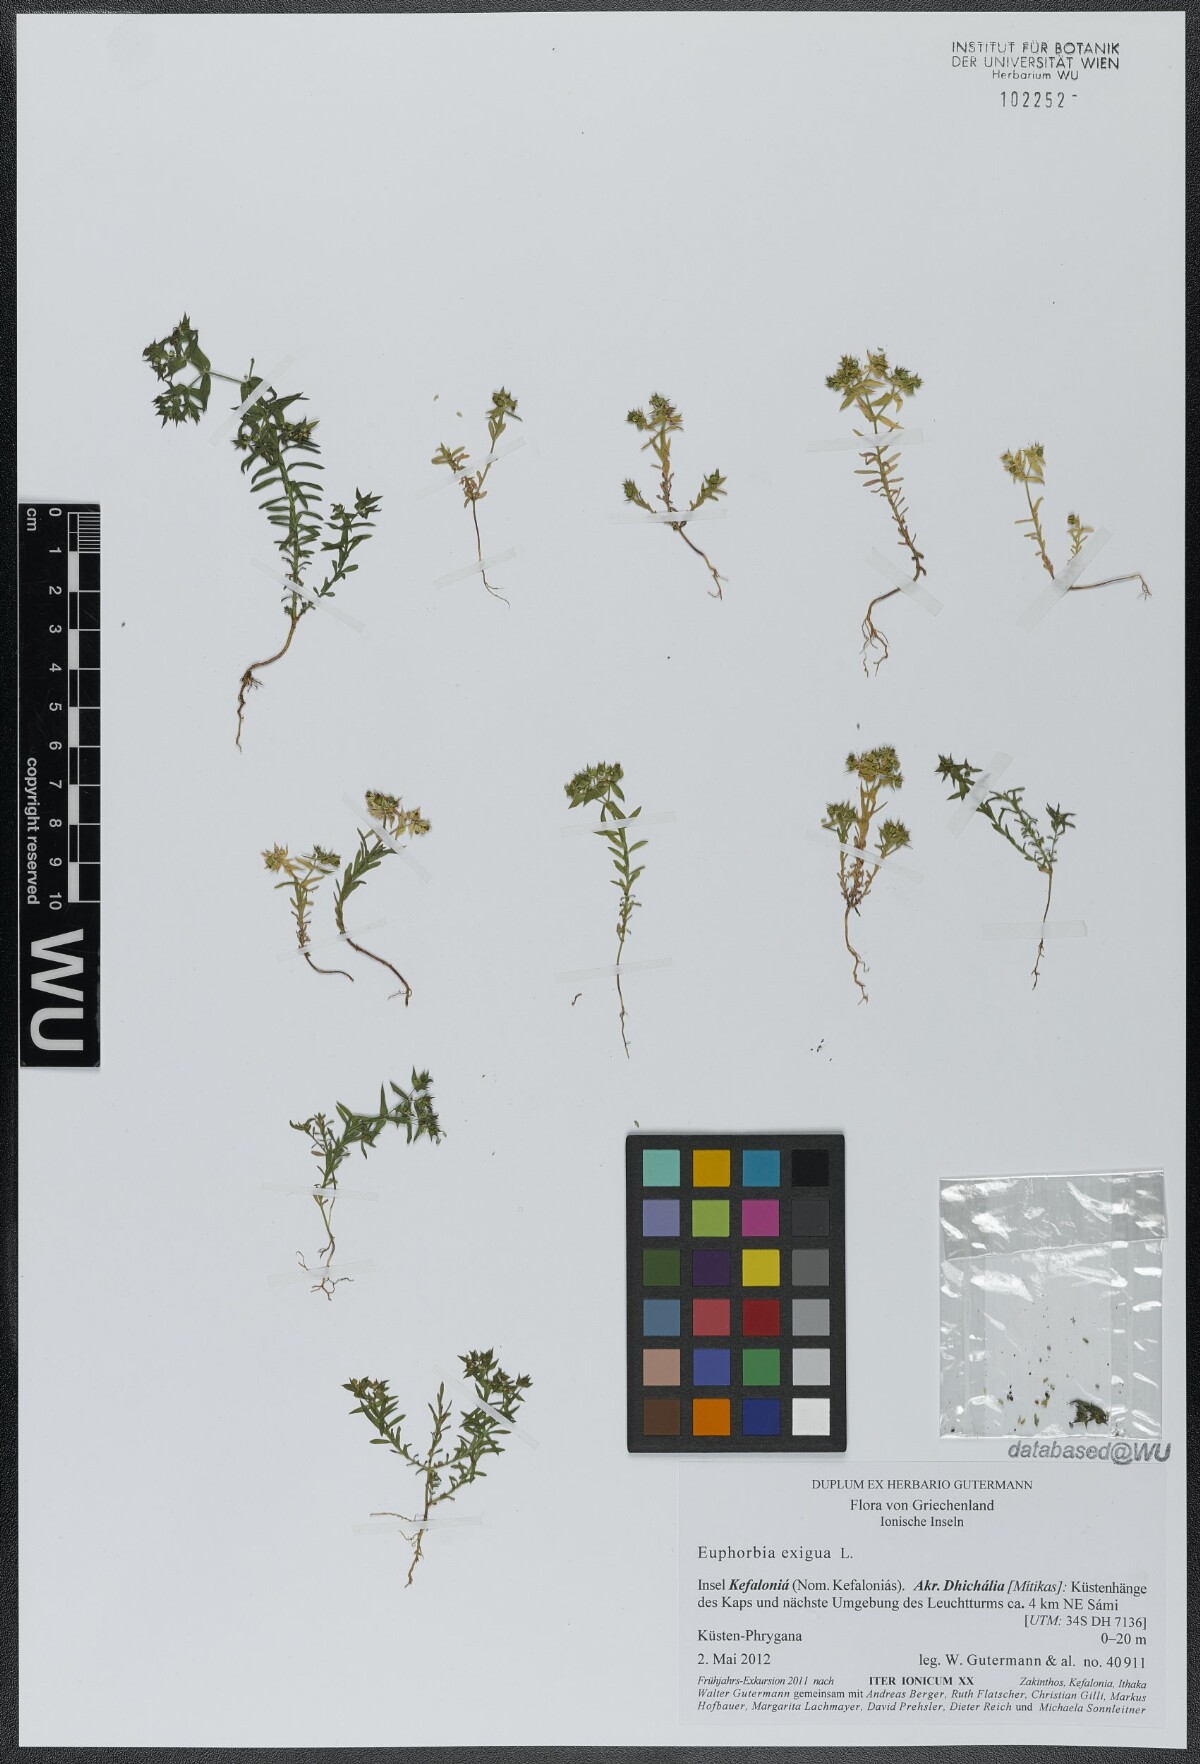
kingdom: Plantae
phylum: Tracheophyta
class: Magnoliopsida
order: Malpighiales
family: Euphorbiaceae
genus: Euphorbia
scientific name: Euphorbia exigua
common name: Dwarf spurge
